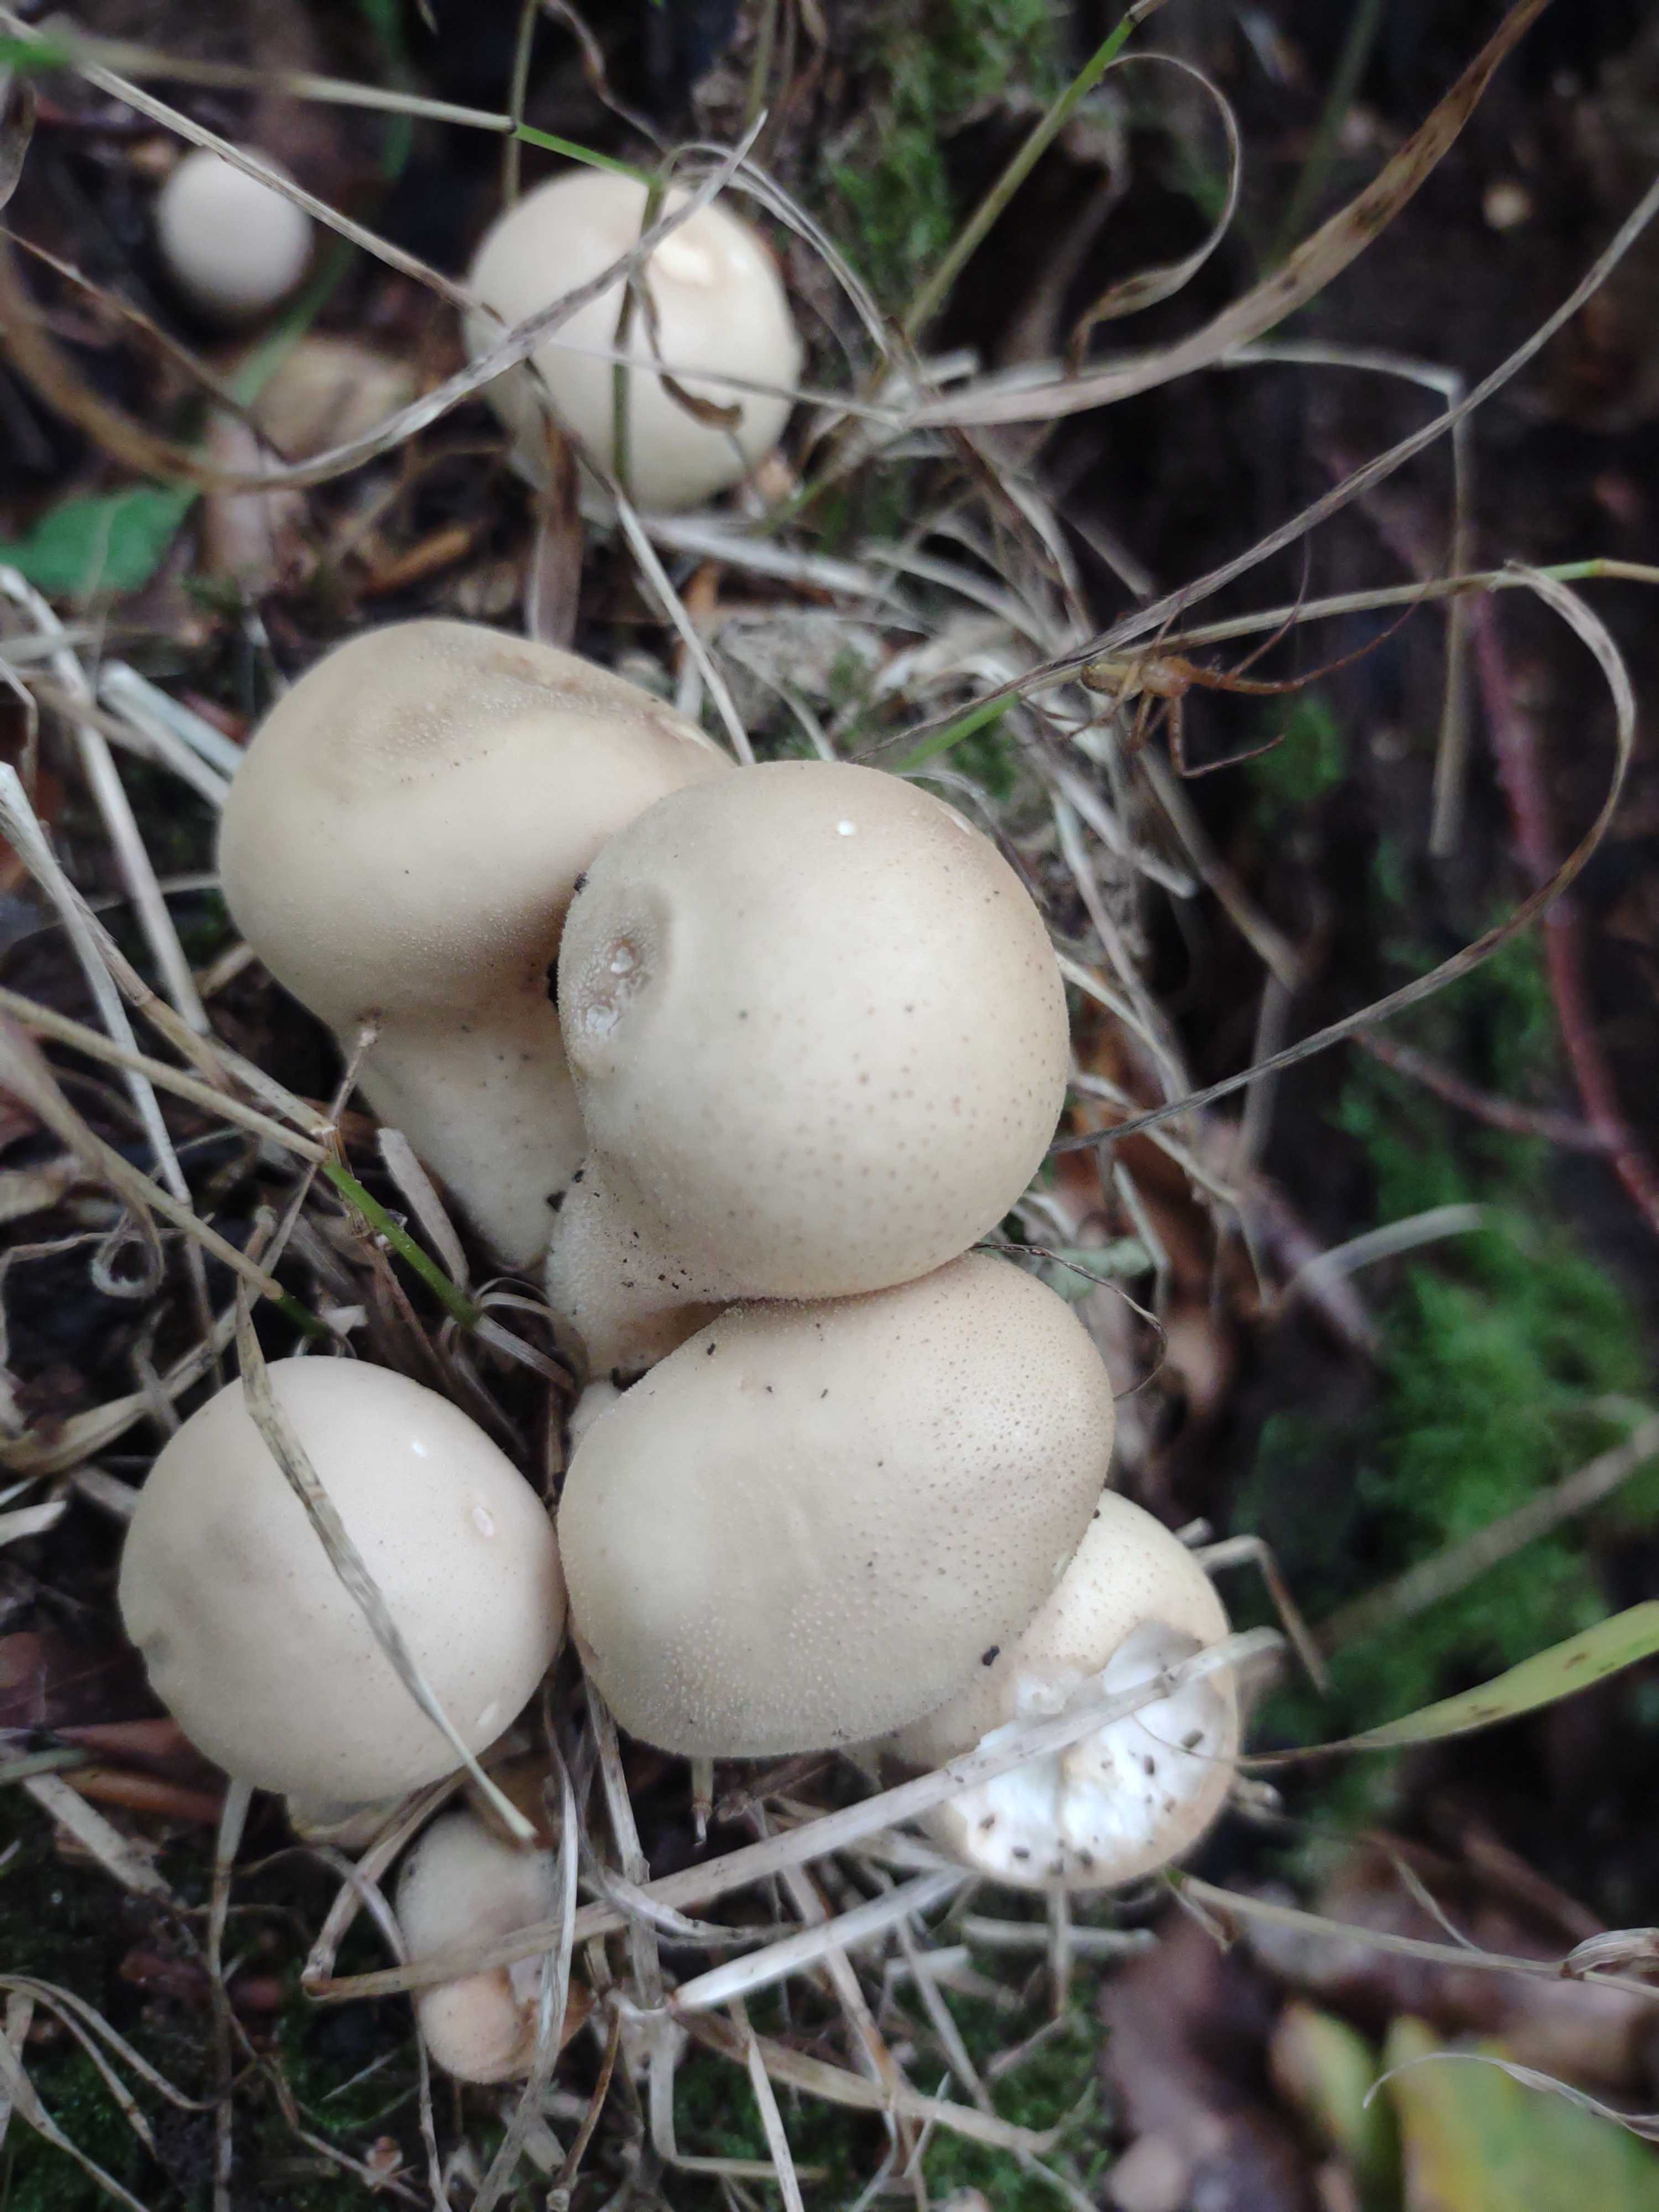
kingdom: Fungi
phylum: Basidiomycota
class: Agaricomycetes
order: Agaricales
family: Lycoperdaceae
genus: Apioperdon
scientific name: Apioperdon pyriforme
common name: pære-støvbold
